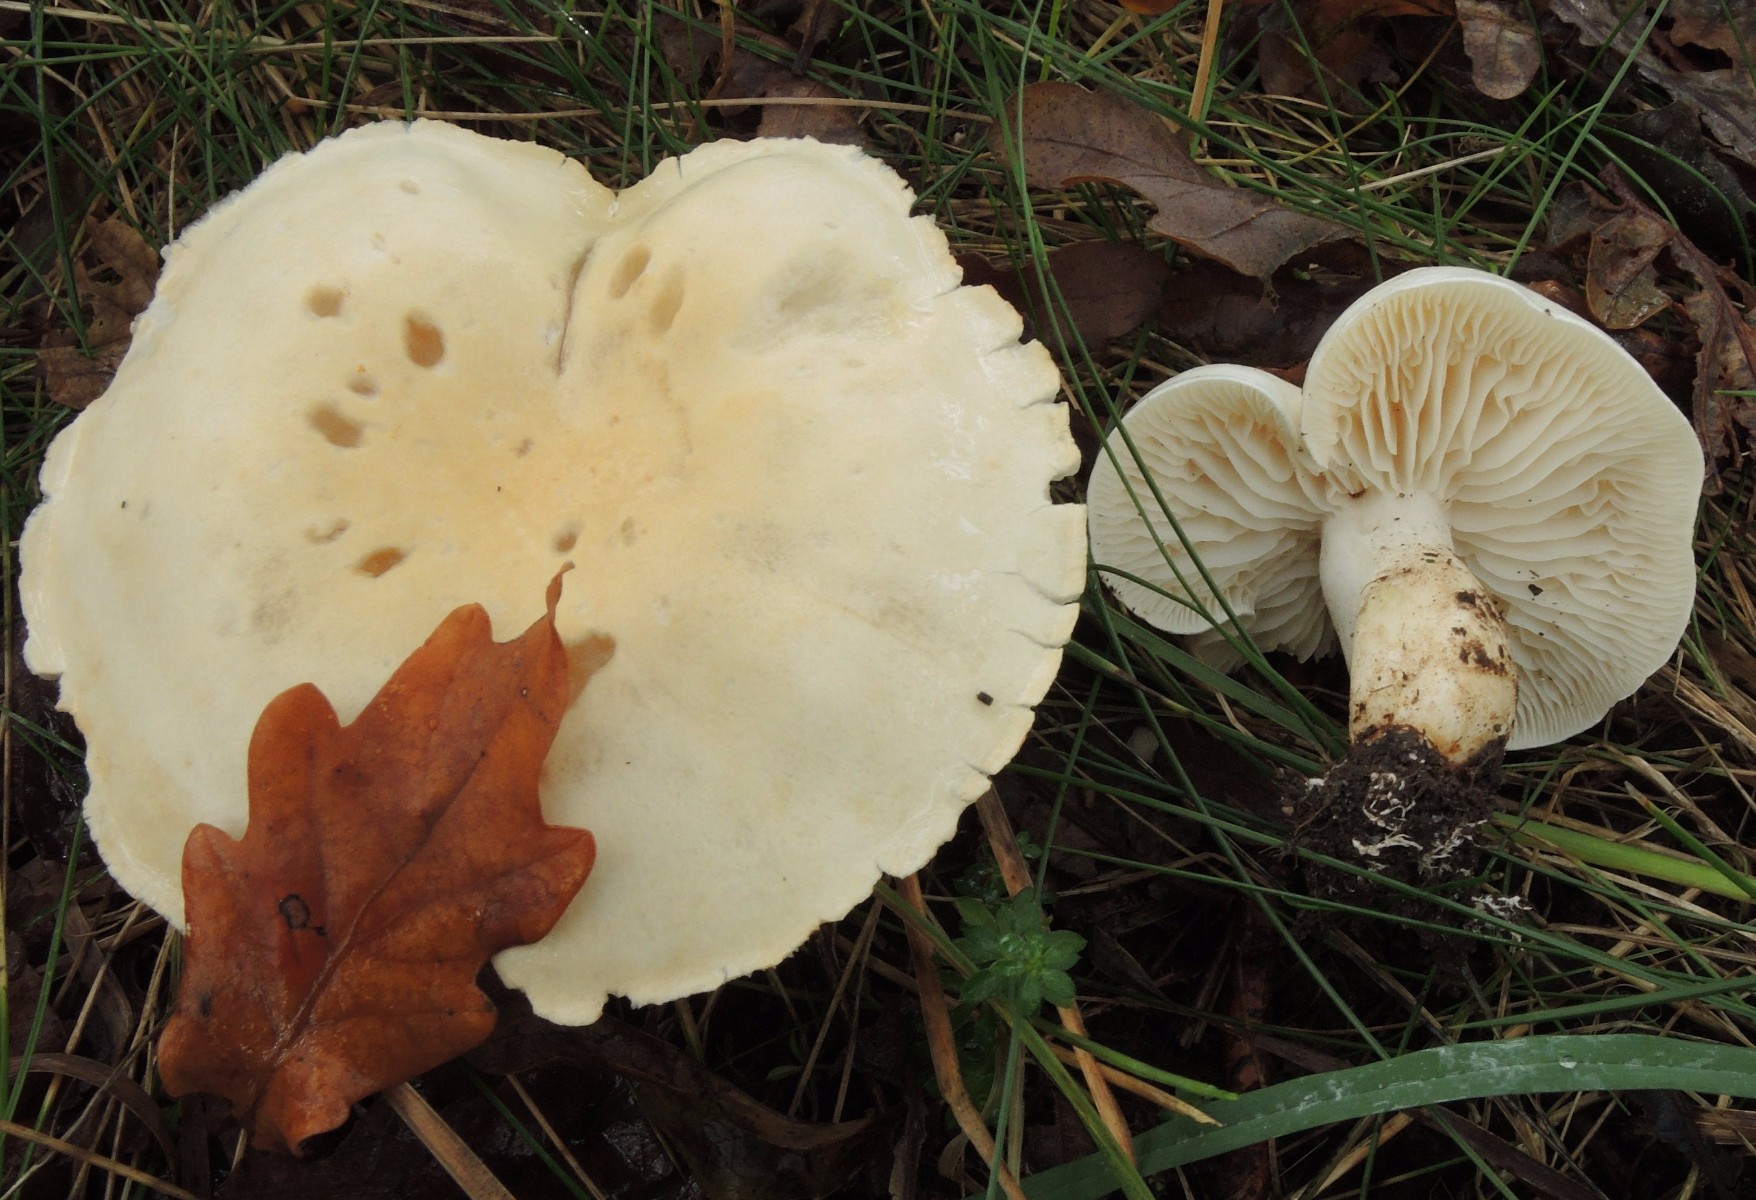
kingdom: Fungi
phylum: Basidiomycota
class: Agaricomycetes
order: Agaricales
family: Tricholomataceae
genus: Tricholoma
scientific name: Tricholoma album
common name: honning-ridderhat
